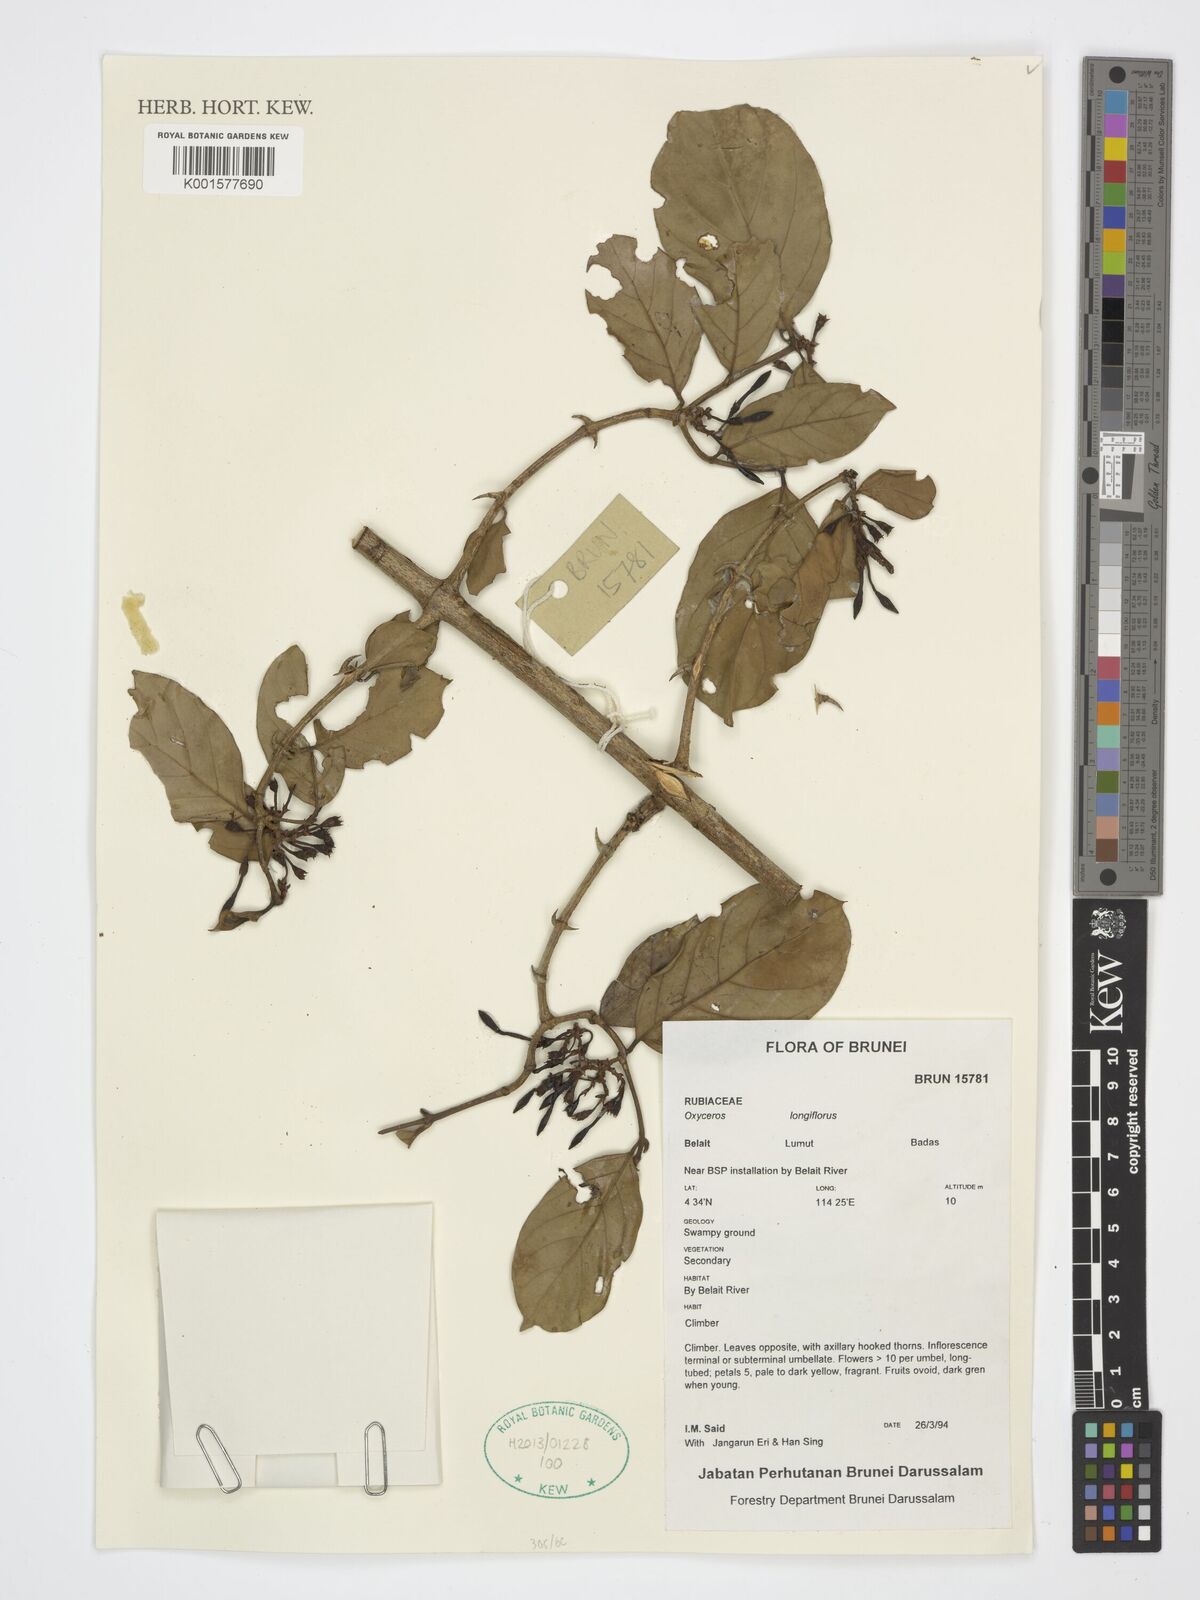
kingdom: Plantae
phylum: Tracheophyta
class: Magnoliopsida
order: Gentianales
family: Rubiaceae
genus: Oxyceros
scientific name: Oxyceros longiflorus
